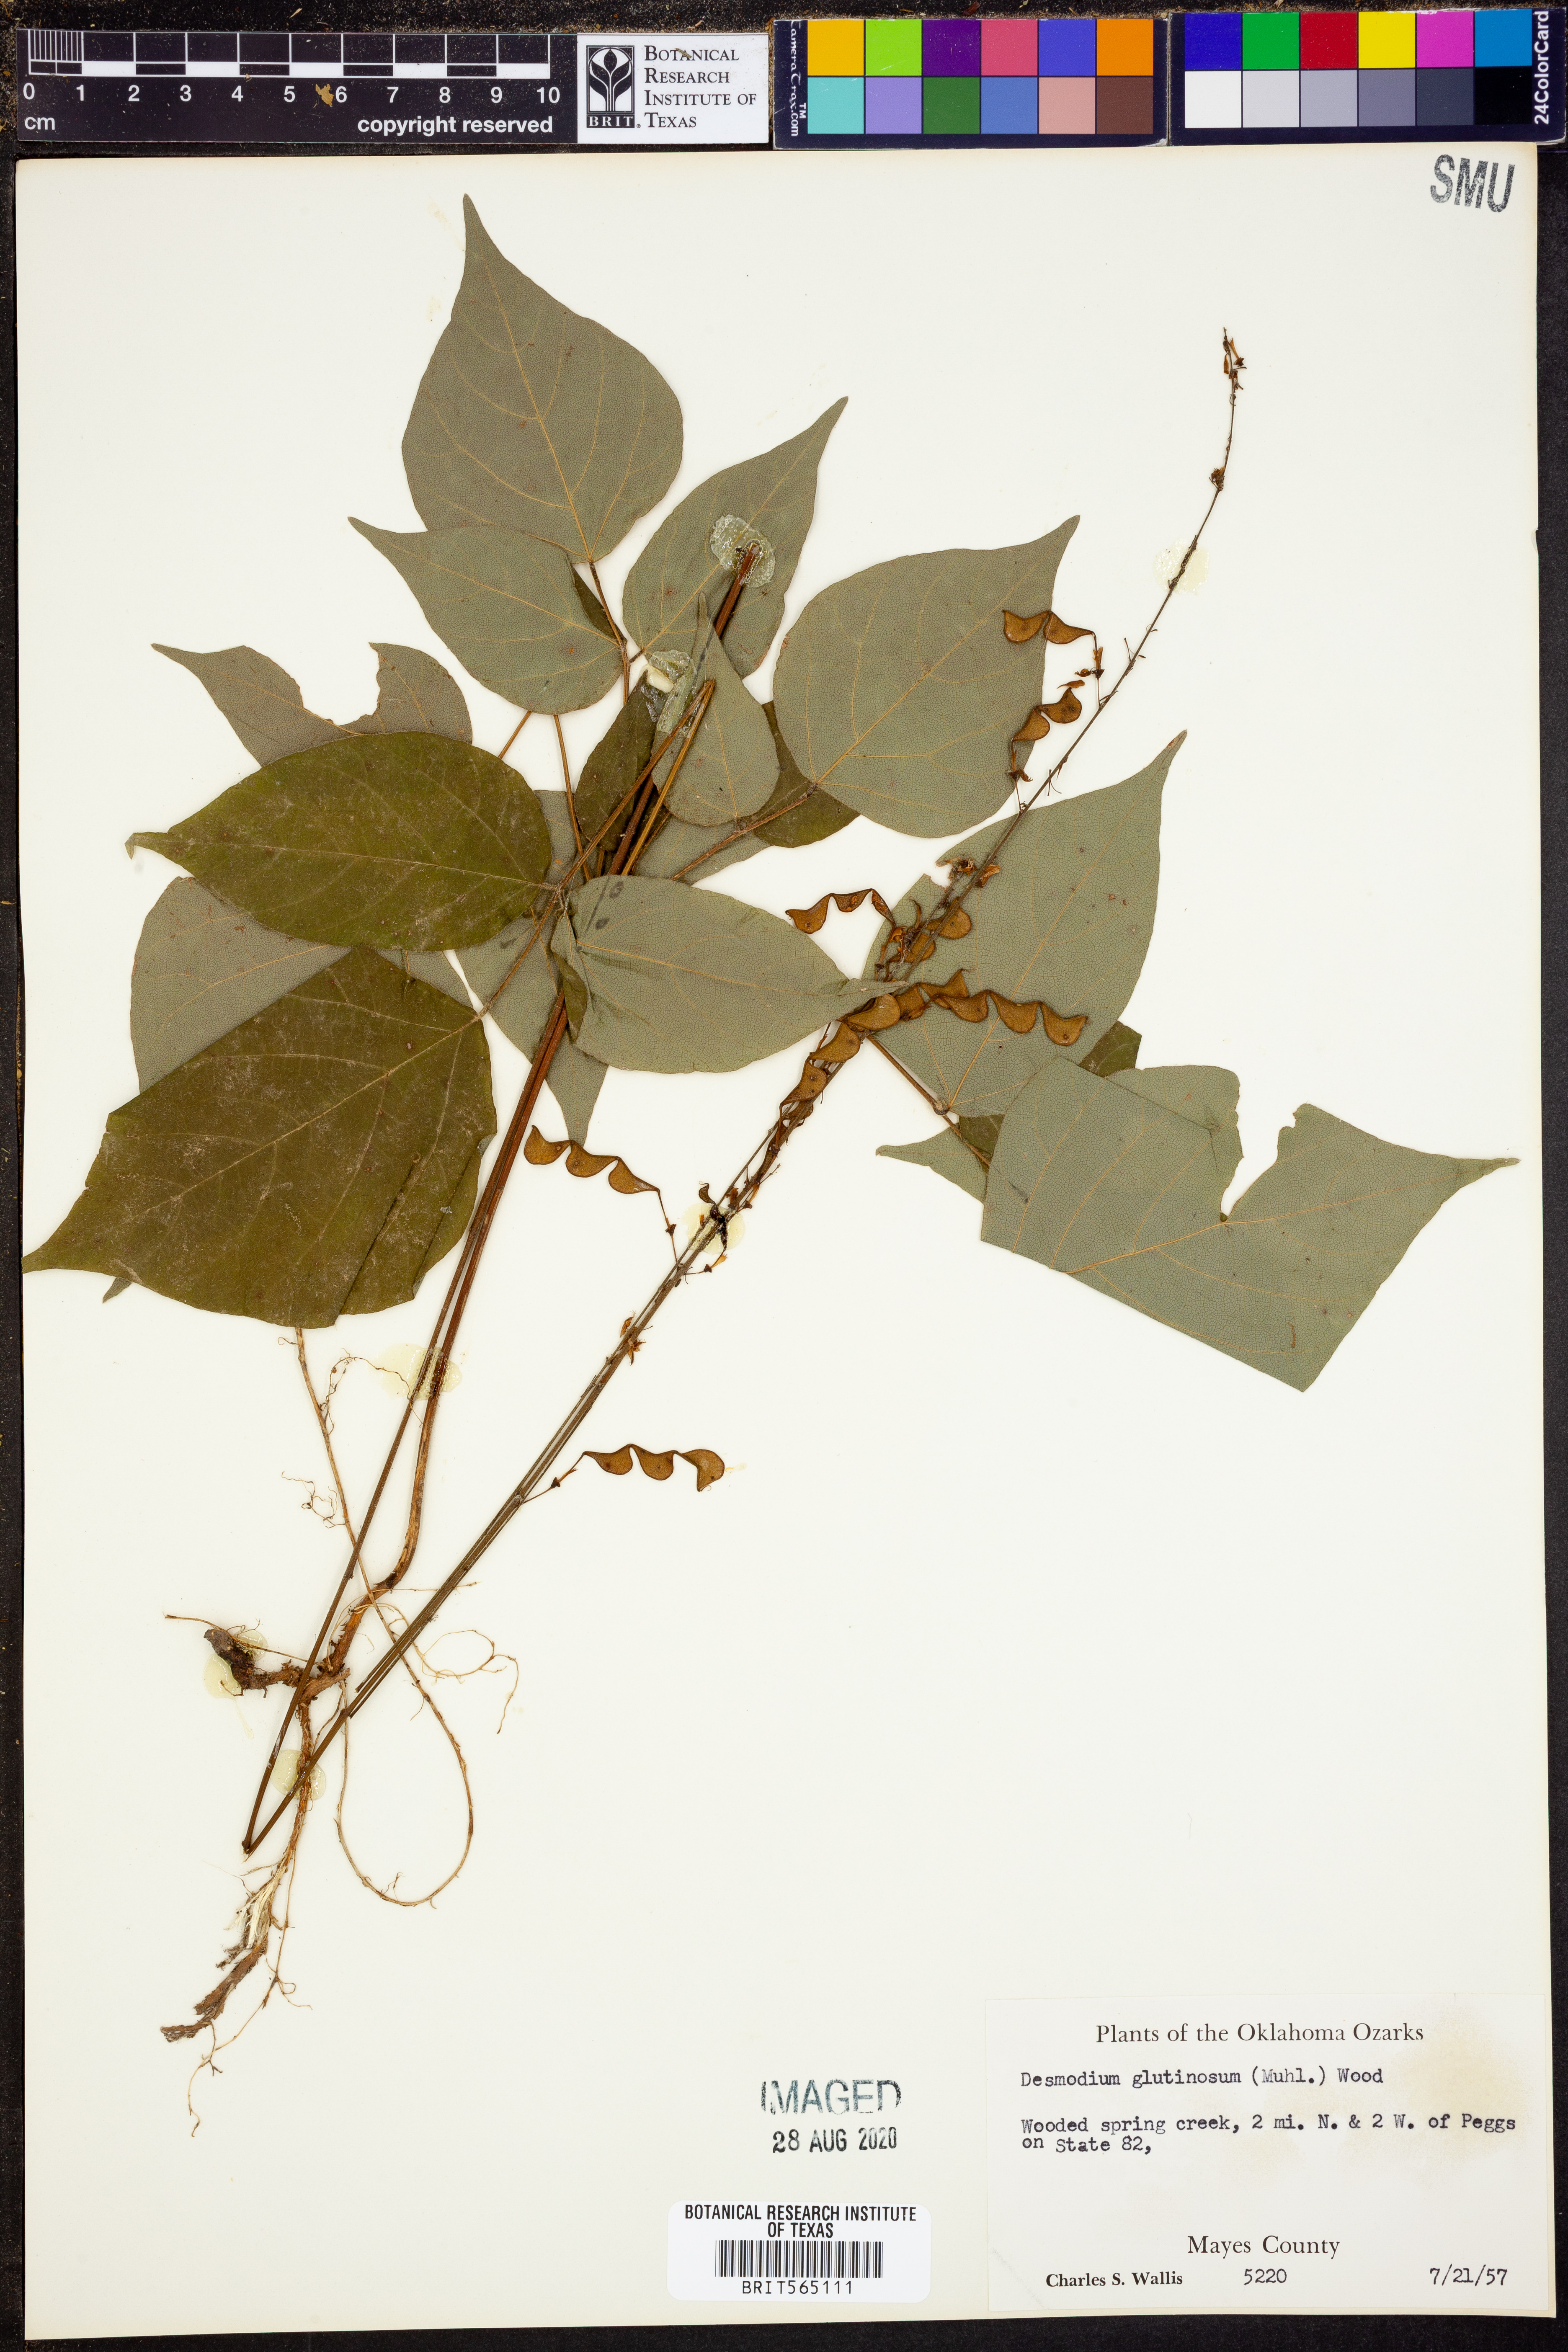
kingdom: Plantae
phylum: Tracheophyta
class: Magnoliopsida
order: Fabales
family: Fabaceae
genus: Hylodesmum
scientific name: Hylodesmum glutinosum
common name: Clustered-leaved tick-trefoil
